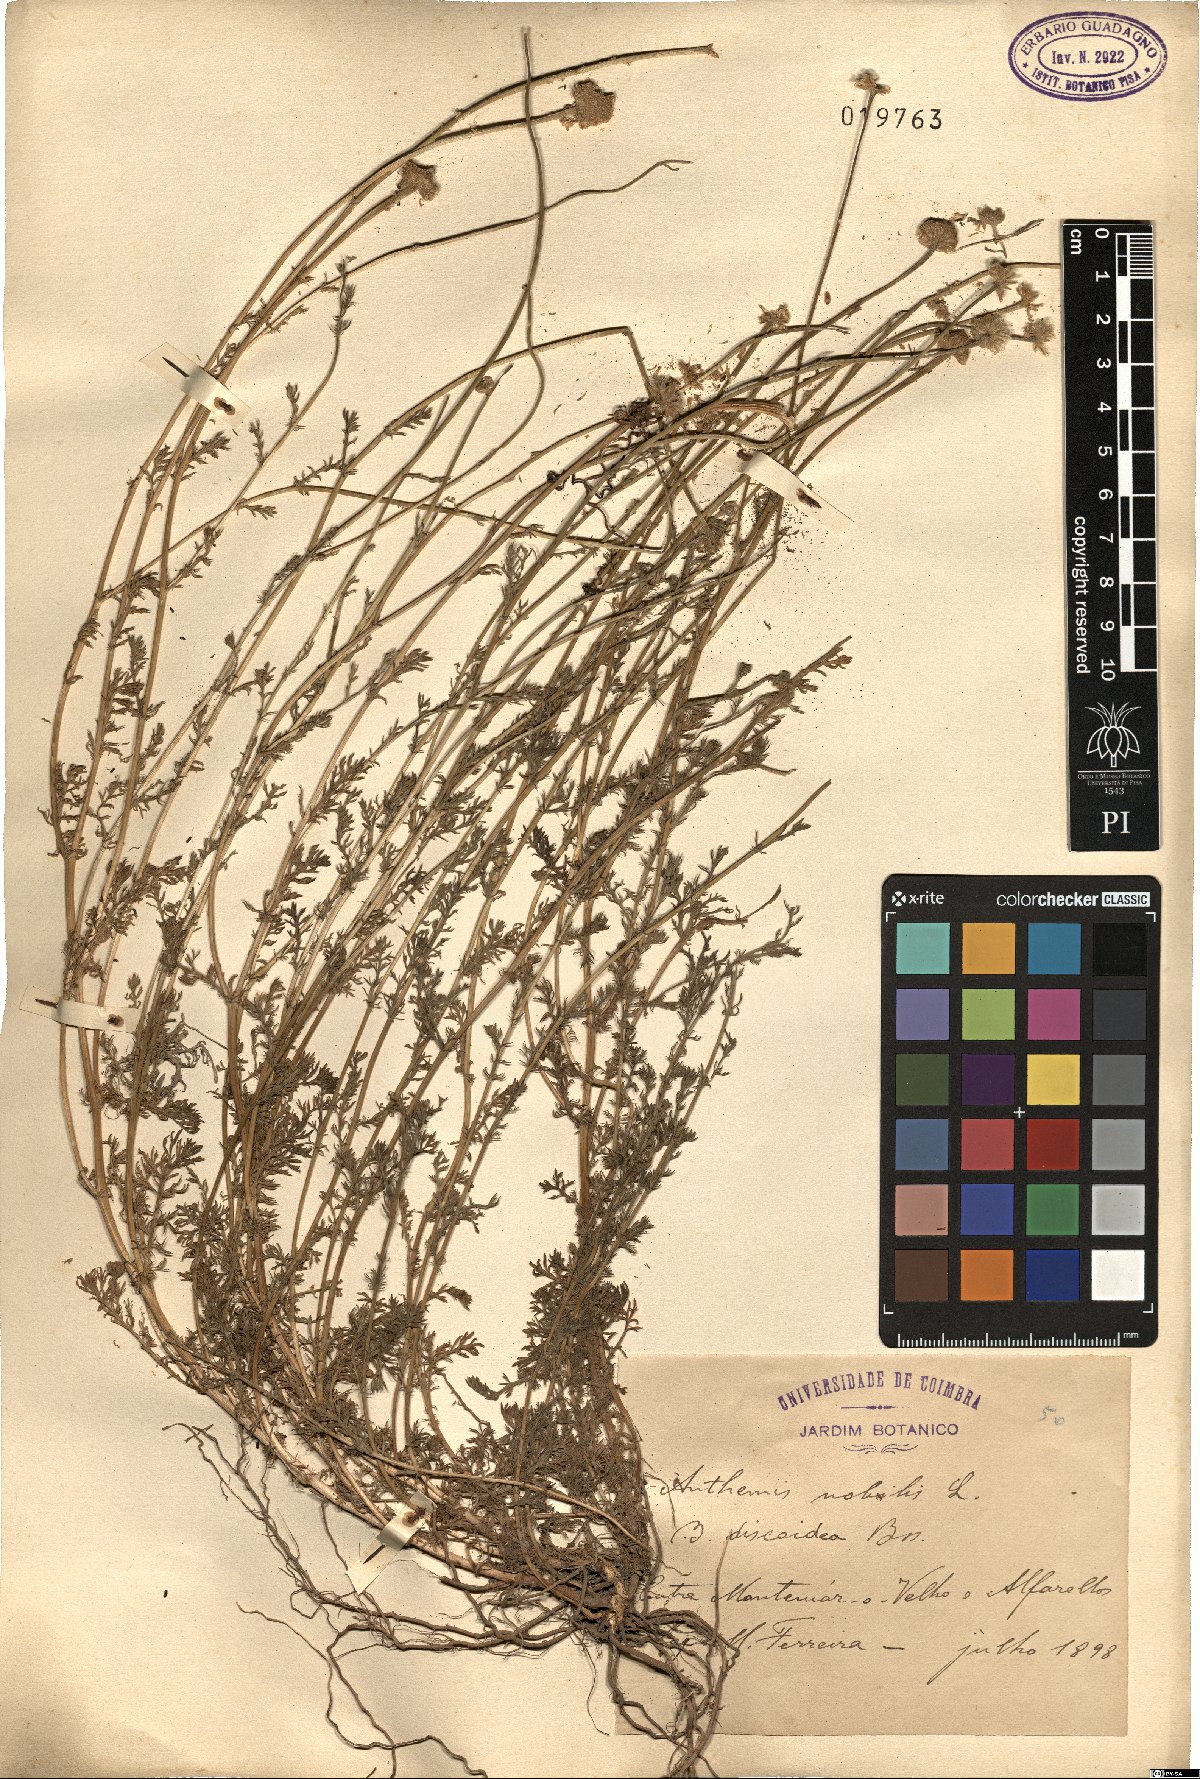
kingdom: Plantae
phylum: Tracheophyta
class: Magnoliopsida
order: Asterales
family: Asteraceae
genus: Chamaemelum
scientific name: Chamaemelum nobile
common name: Roman chamomile
